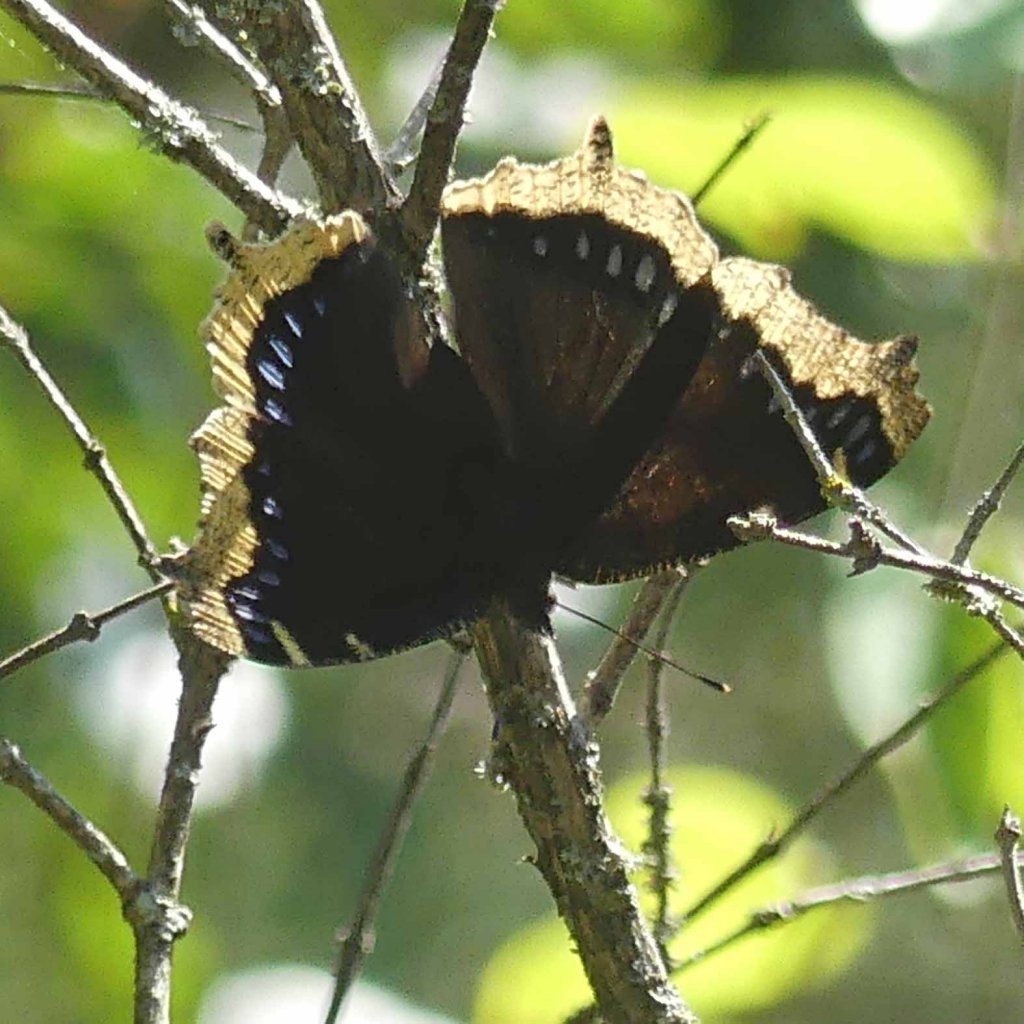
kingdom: Animalia
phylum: Arthropoda
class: Insecta
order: Lepidoptera
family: Nymphalidae
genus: Nymphalis
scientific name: Nymphalis antiopa
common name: Mourning Cloak
